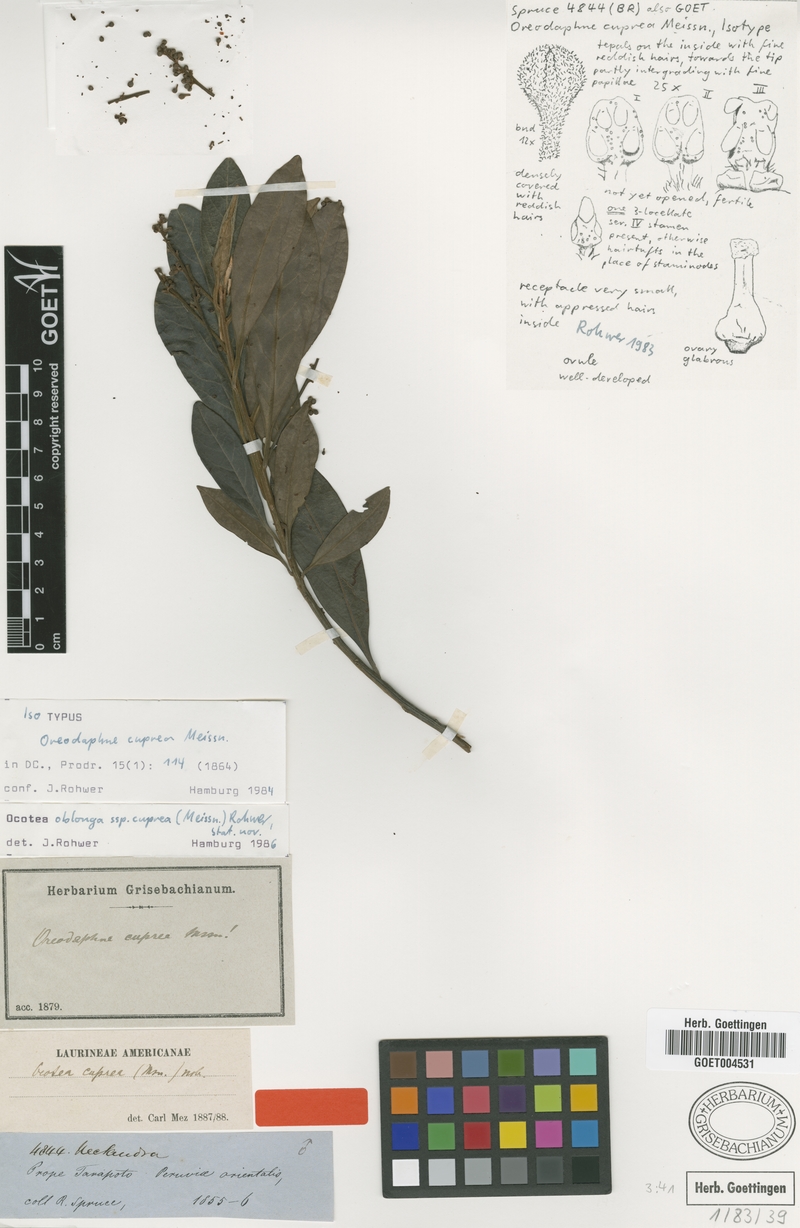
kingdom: Plantae
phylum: Tracheophyta
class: Magnoliopsida
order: Laurales
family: Lauraceae
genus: Ocotea
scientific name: Ocotea oblonga
